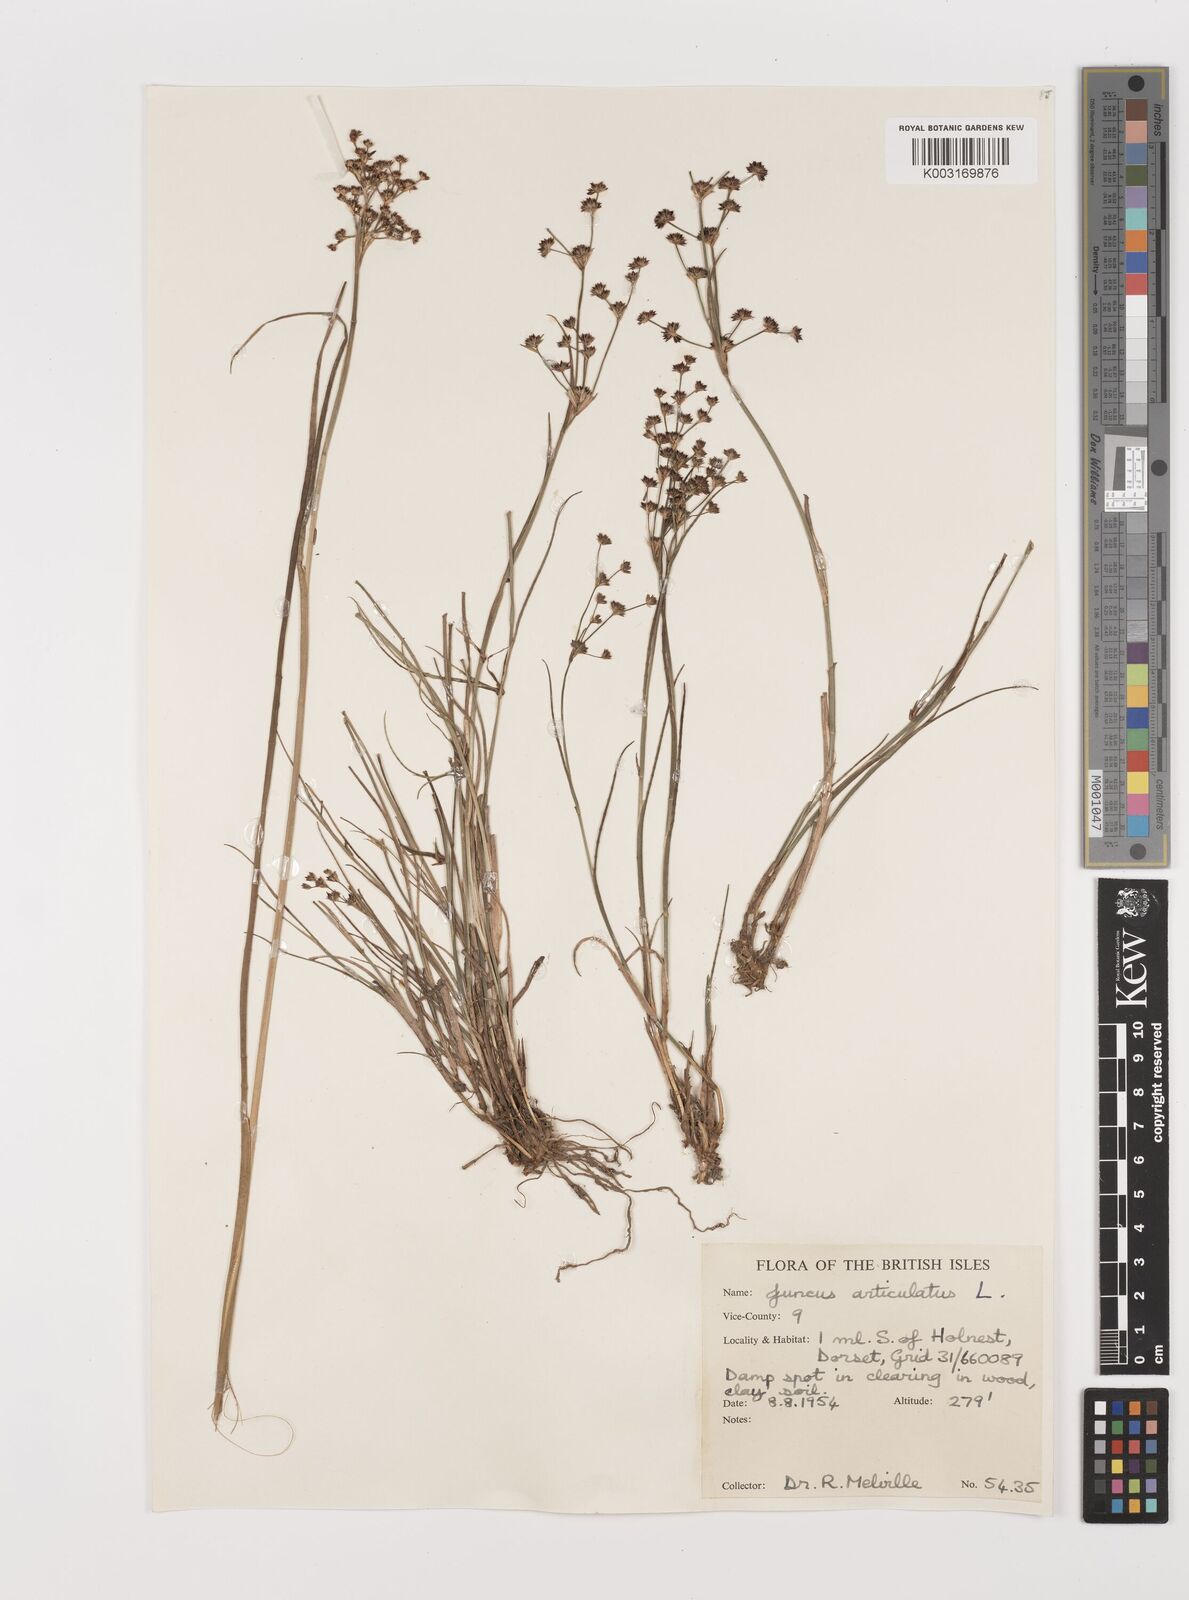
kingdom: Plantae
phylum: Tracheophyta
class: Liliopsida
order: Poales
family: Juncaceae
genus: Juncus
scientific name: Juncus articulatus
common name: Jointed rush
